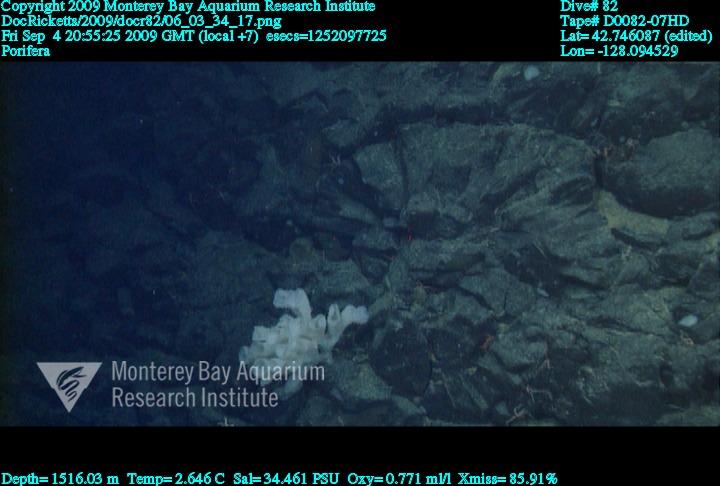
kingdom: Animalia
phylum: Porifera
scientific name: Porifera
